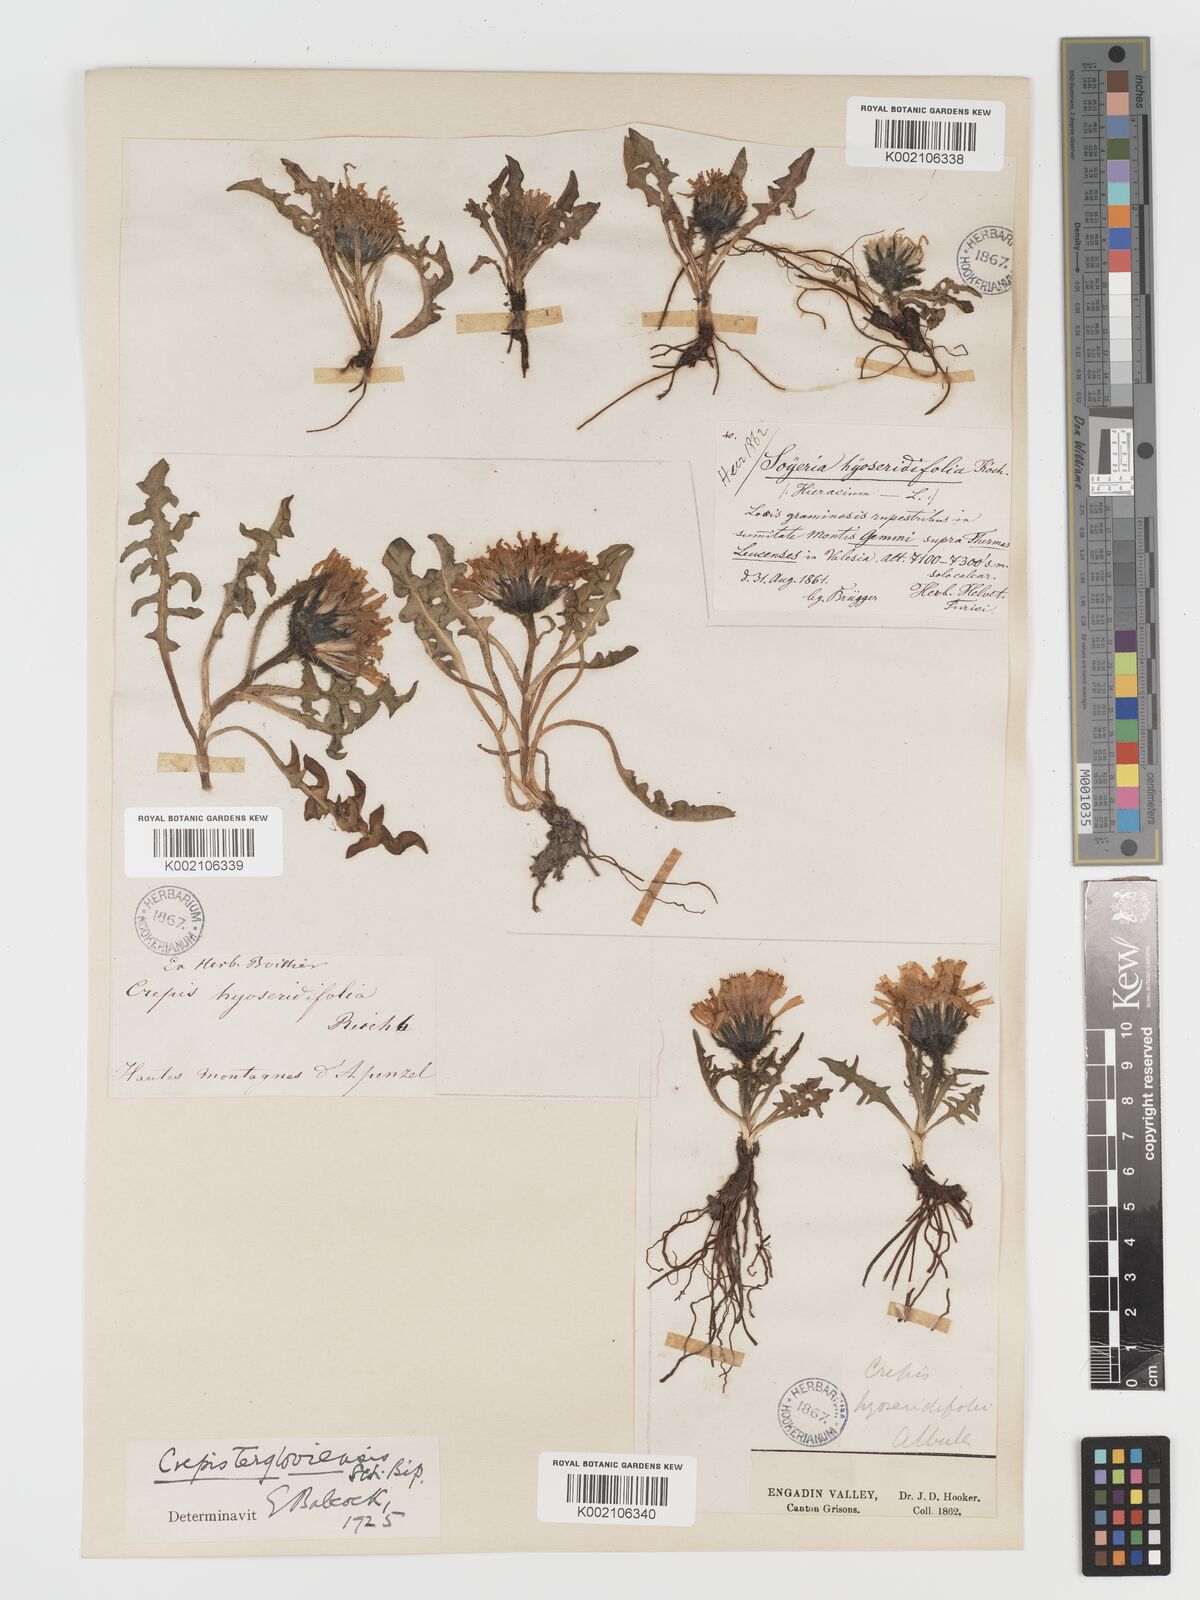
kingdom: Plantae
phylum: Tracheophyta
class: Magnoliopsida
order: Asterales
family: Asteraceae
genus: Crepis
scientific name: Crepis
